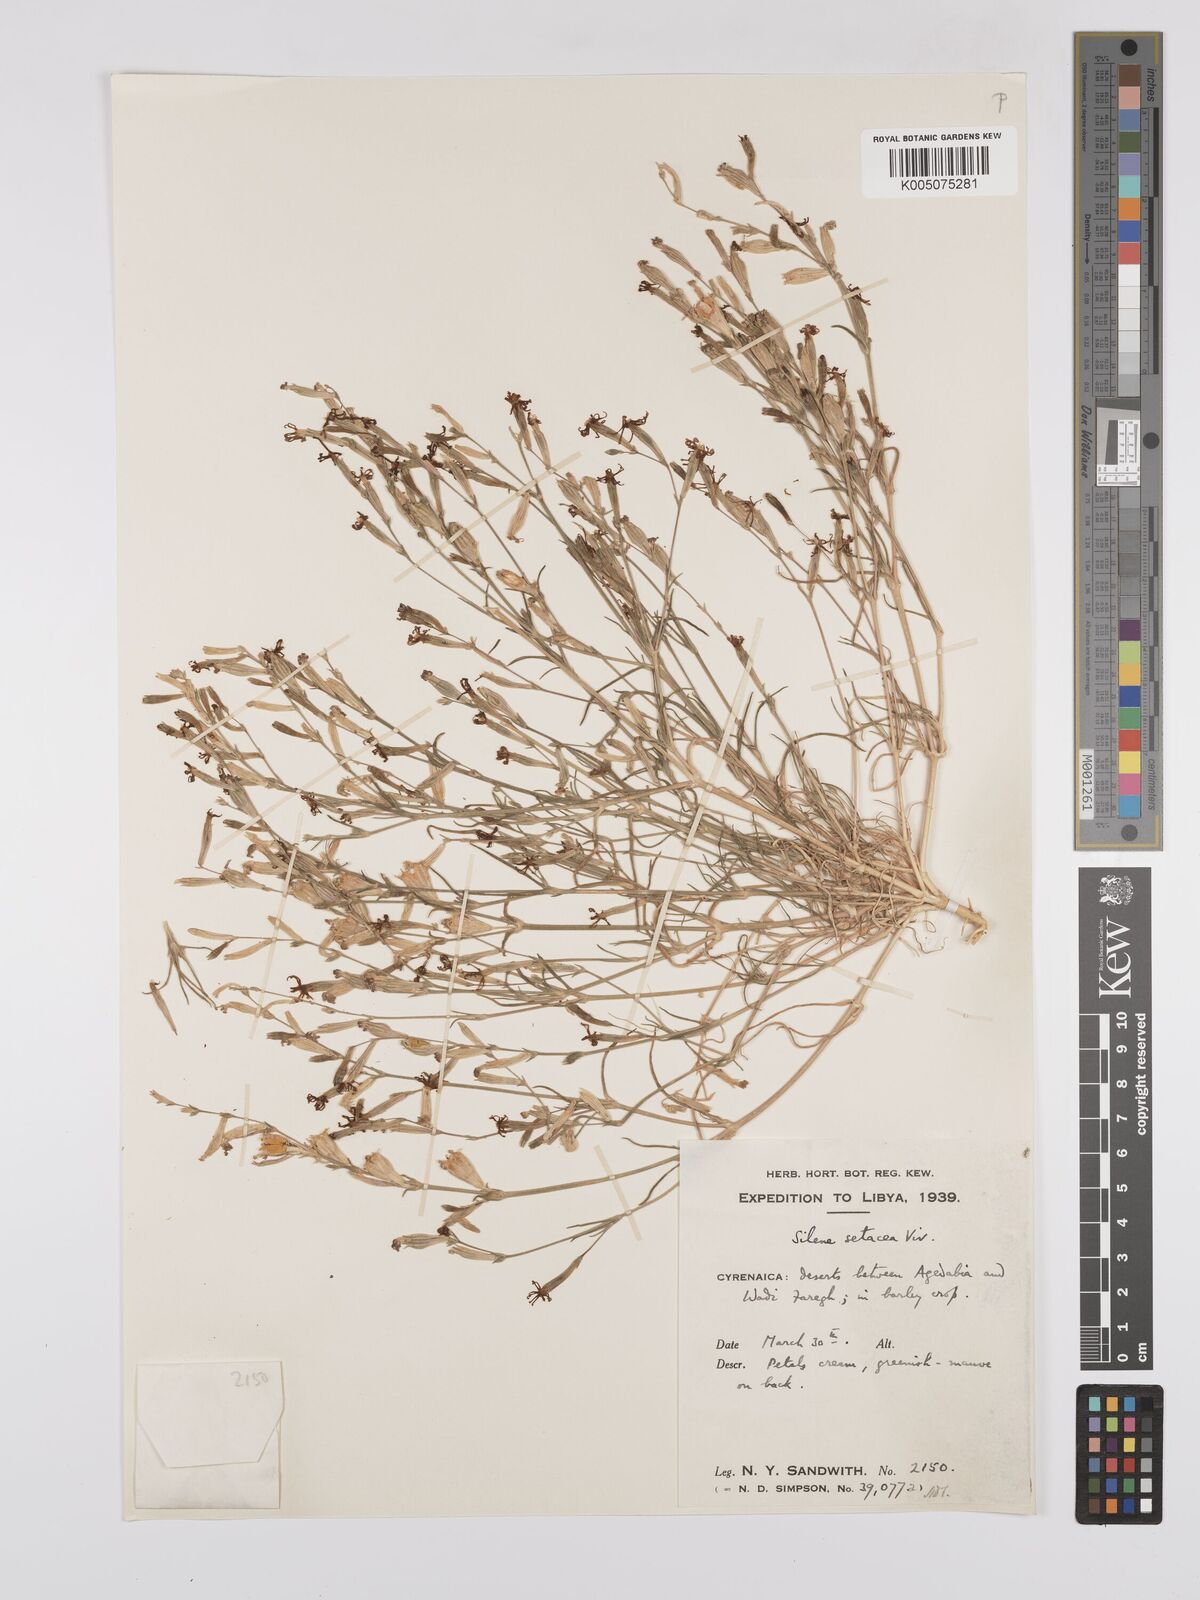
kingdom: Plantae
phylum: Tracheophyta
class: Magnoliopsida
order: Caryophyllales
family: Caryophyllaceae
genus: Silene
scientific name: Silene vivianii
